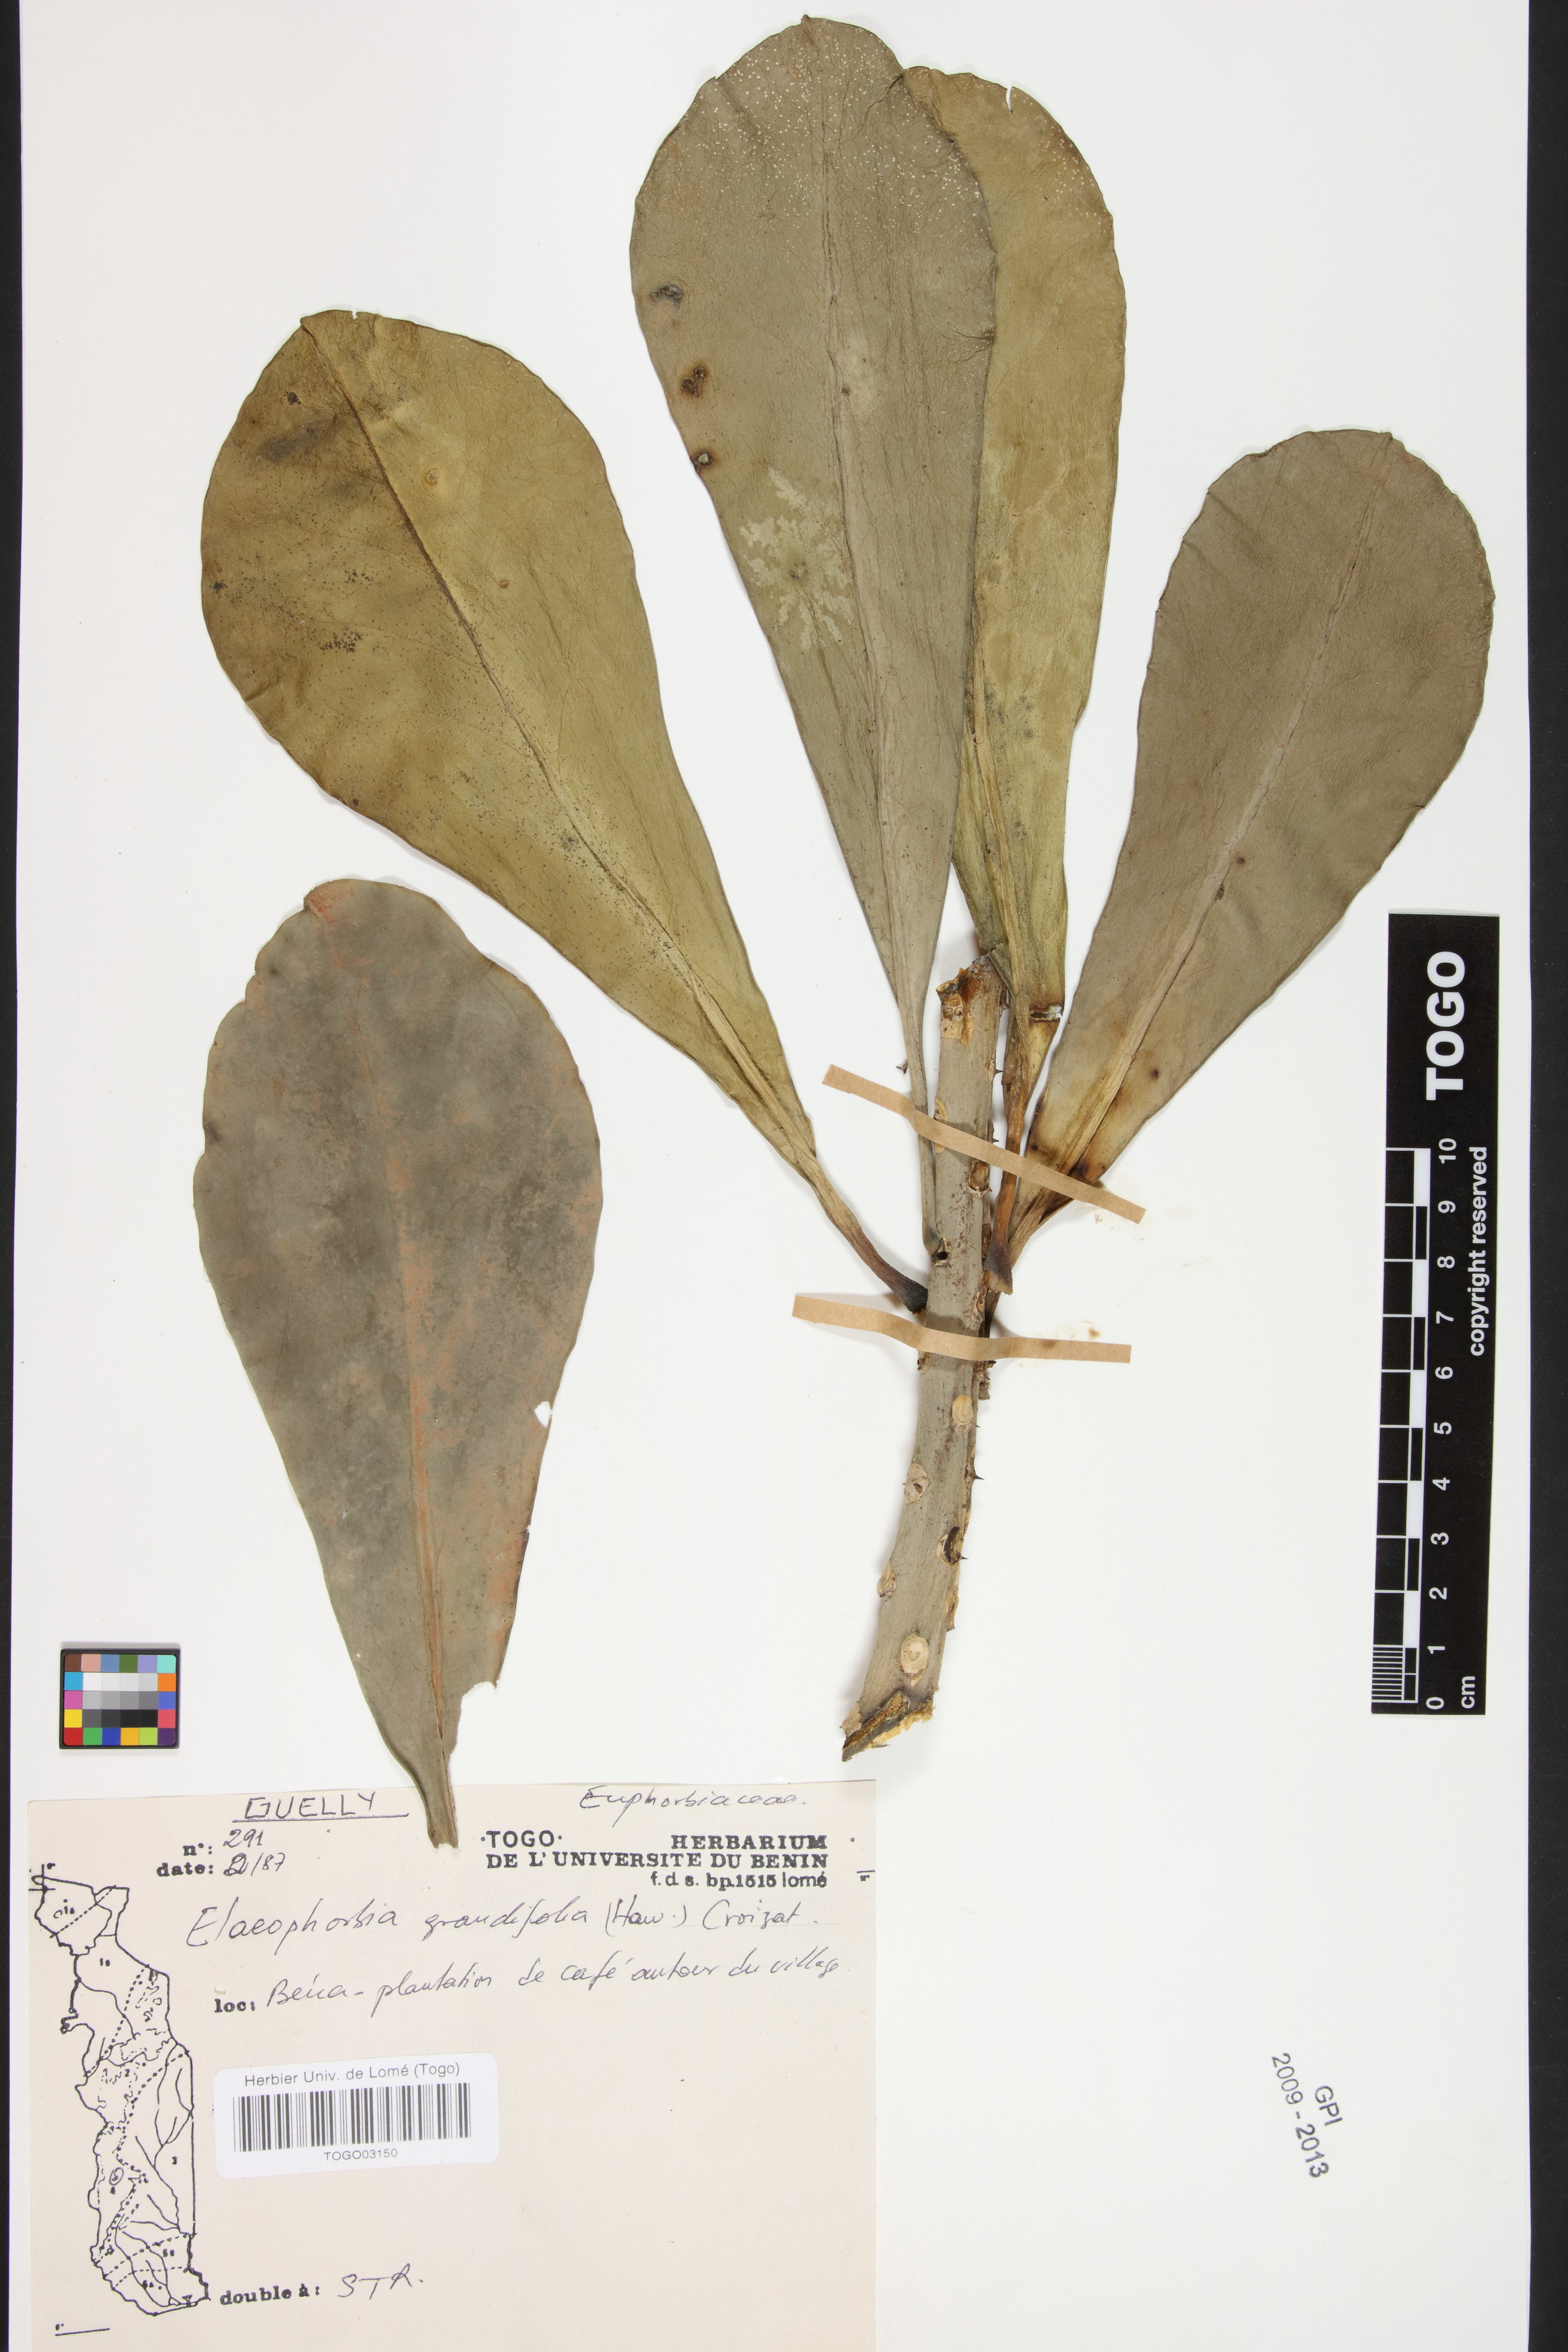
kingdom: Plantae
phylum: Tracheophyta
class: Magnoliopsida
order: Malpighiales
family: Euphorbiaceae
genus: Euphorbia
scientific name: Euphorbia grandifolia
